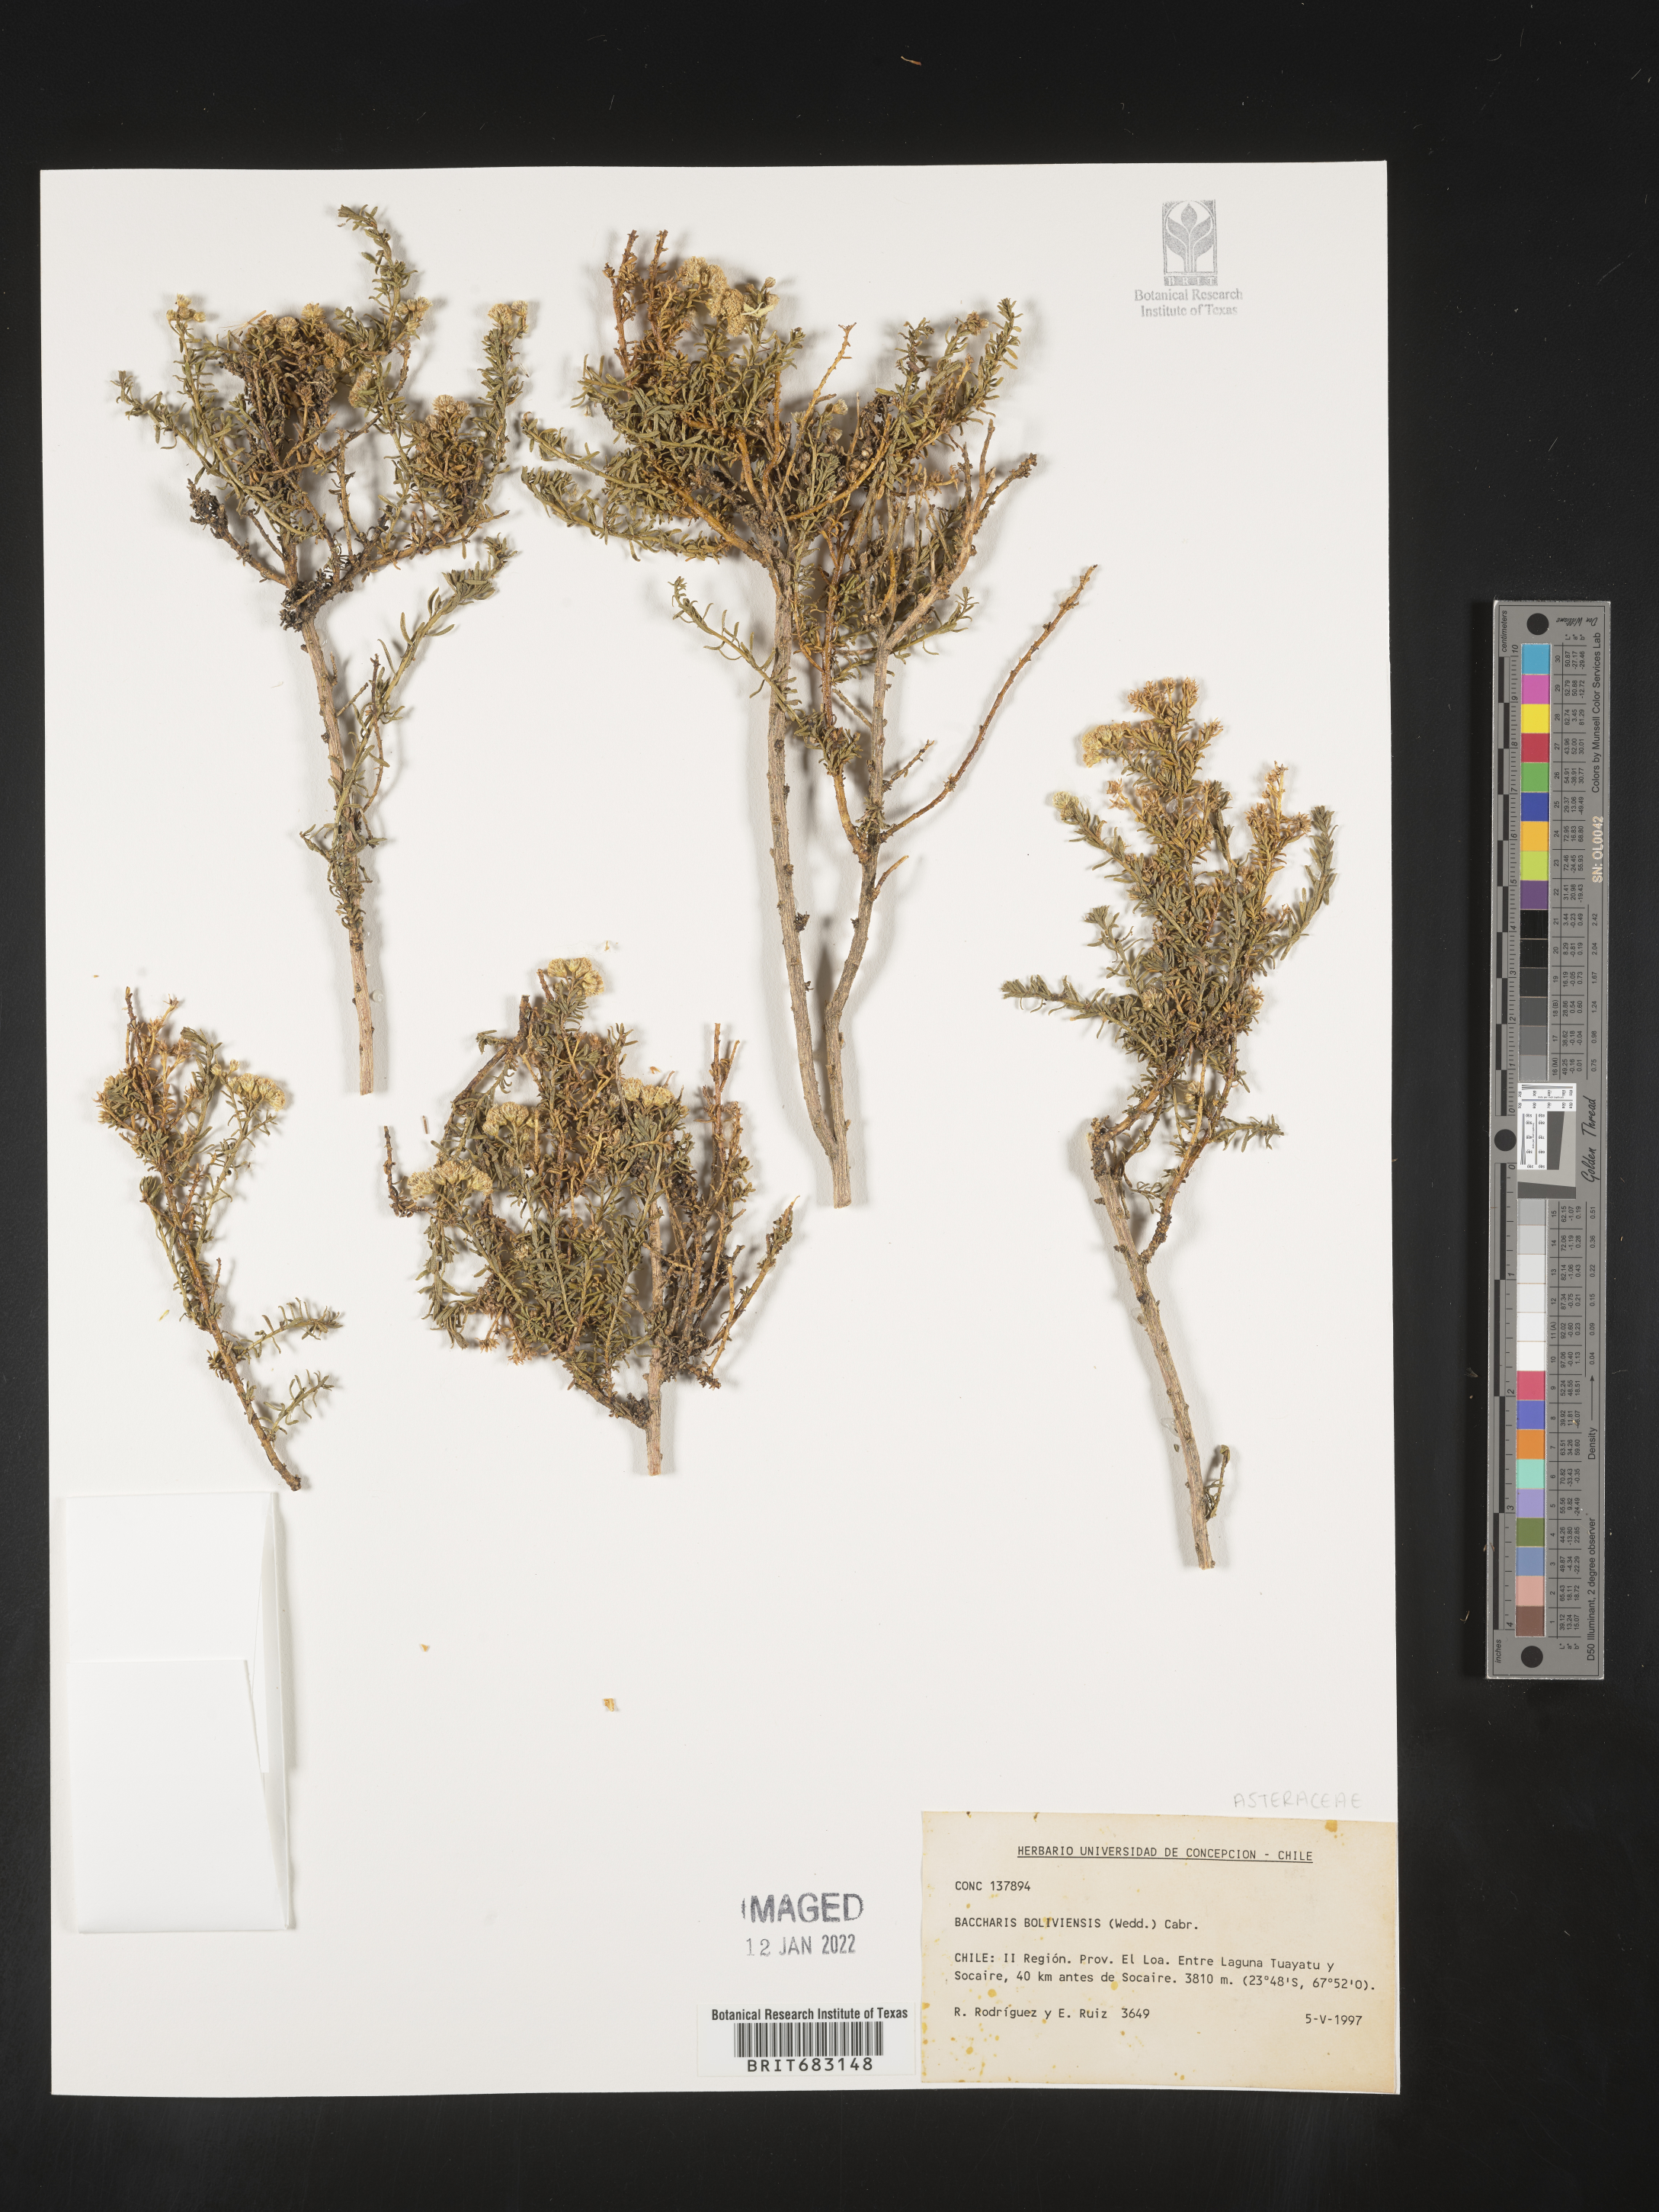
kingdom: Plantae
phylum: Tracheophyta
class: Magnoliopsida
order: Asterales
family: Asteraceae
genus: Baccharis
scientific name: Baccharis
